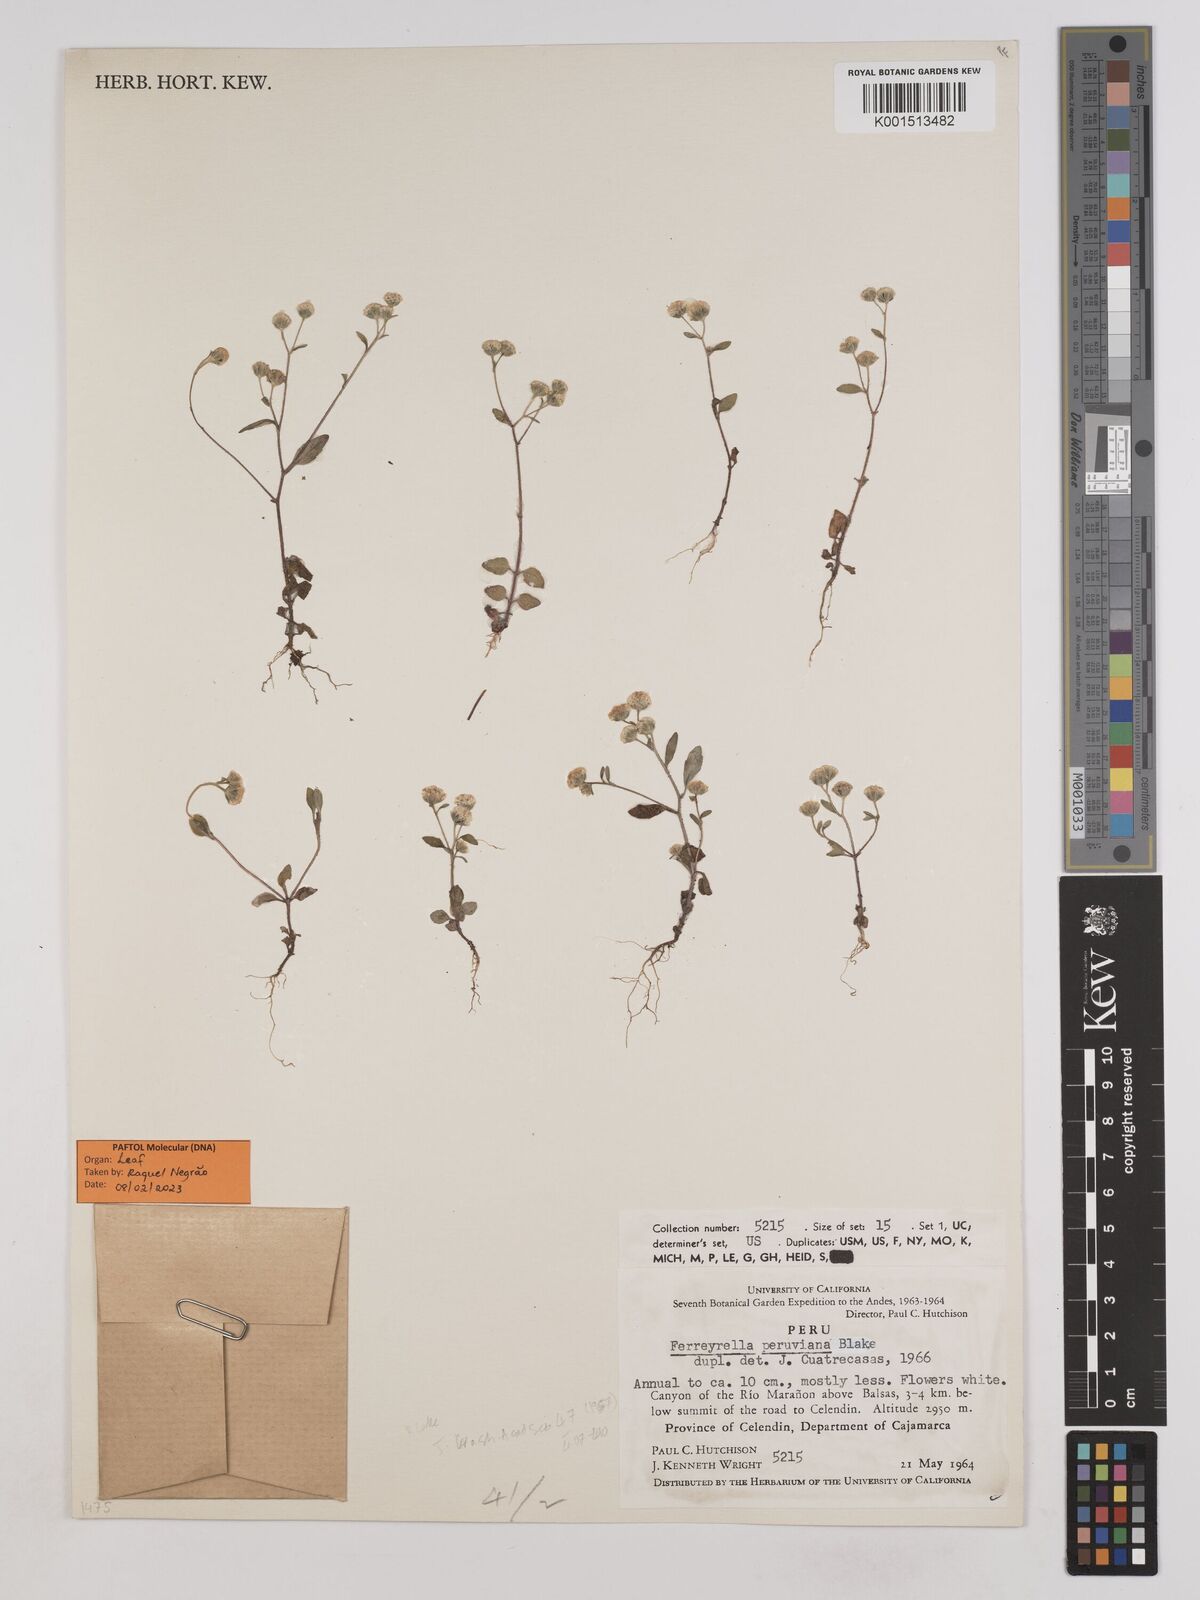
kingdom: Plantae
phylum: Tracheophyta
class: Magnoliopsida
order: Asterales
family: Asteraceae
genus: Ferreyrella
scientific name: Ferreyrella peruviana
